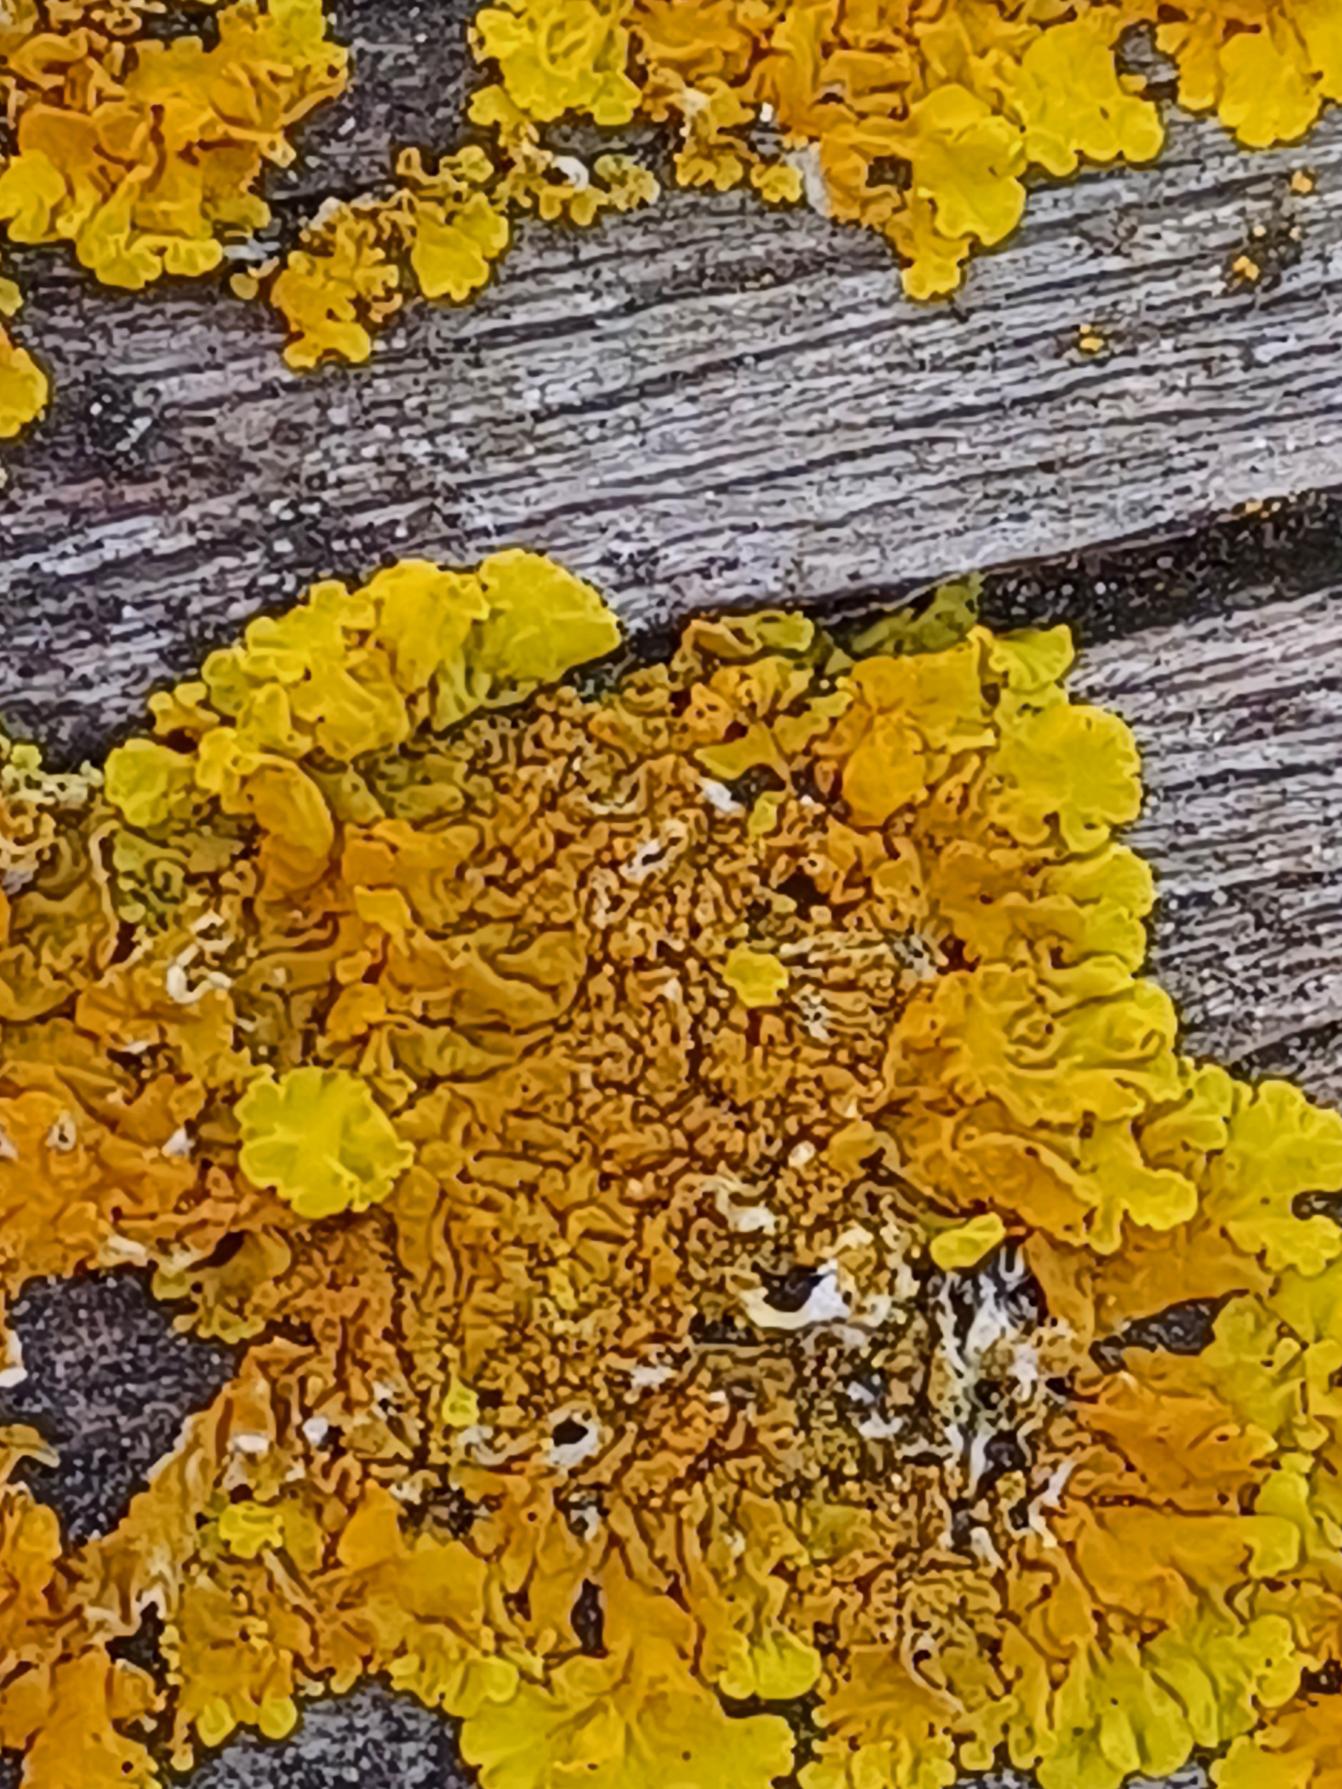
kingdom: Fungi
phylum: Ascomycota
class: Lecanoromycetes
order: Teloschistales
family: Teloschistaceae
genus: Xanthoria
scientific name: Xanthoria parietina
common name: Almindelig væggelav
